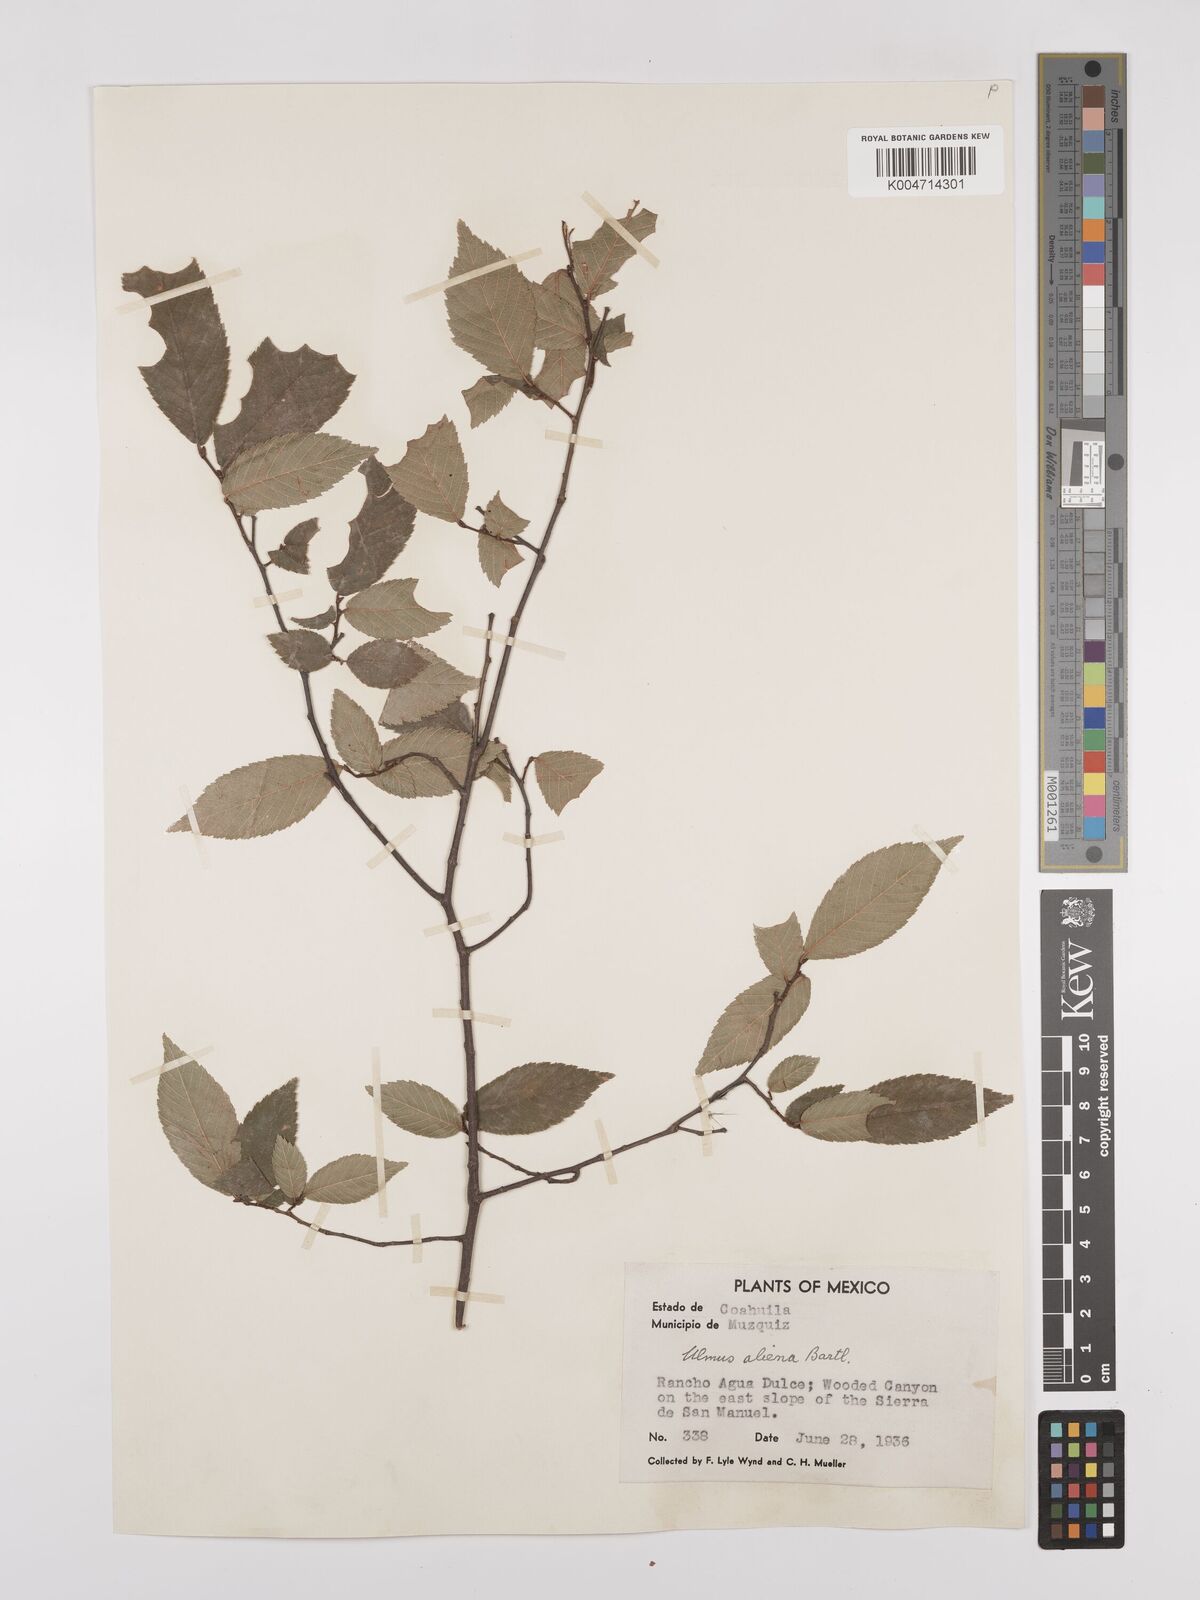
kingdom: Plantae
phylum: Tracheophyta
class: Magnoliopsida
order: Rosales
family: Ulmaceae
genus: Ulmus
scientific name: Ulmus
